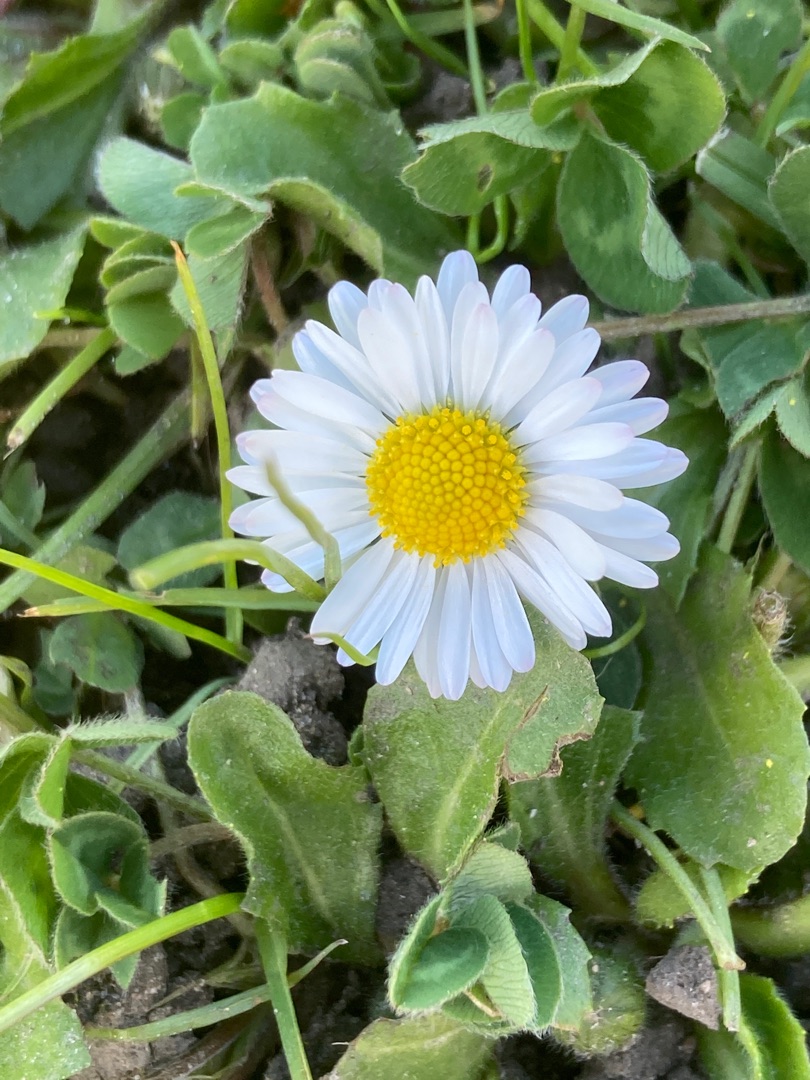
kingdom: Plantae
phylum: Tracheophyta
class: Magnoliopsida
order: Asterales
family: Asteraceae
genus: Bellis
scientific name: Bellis perennis
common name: Tusindfryd
